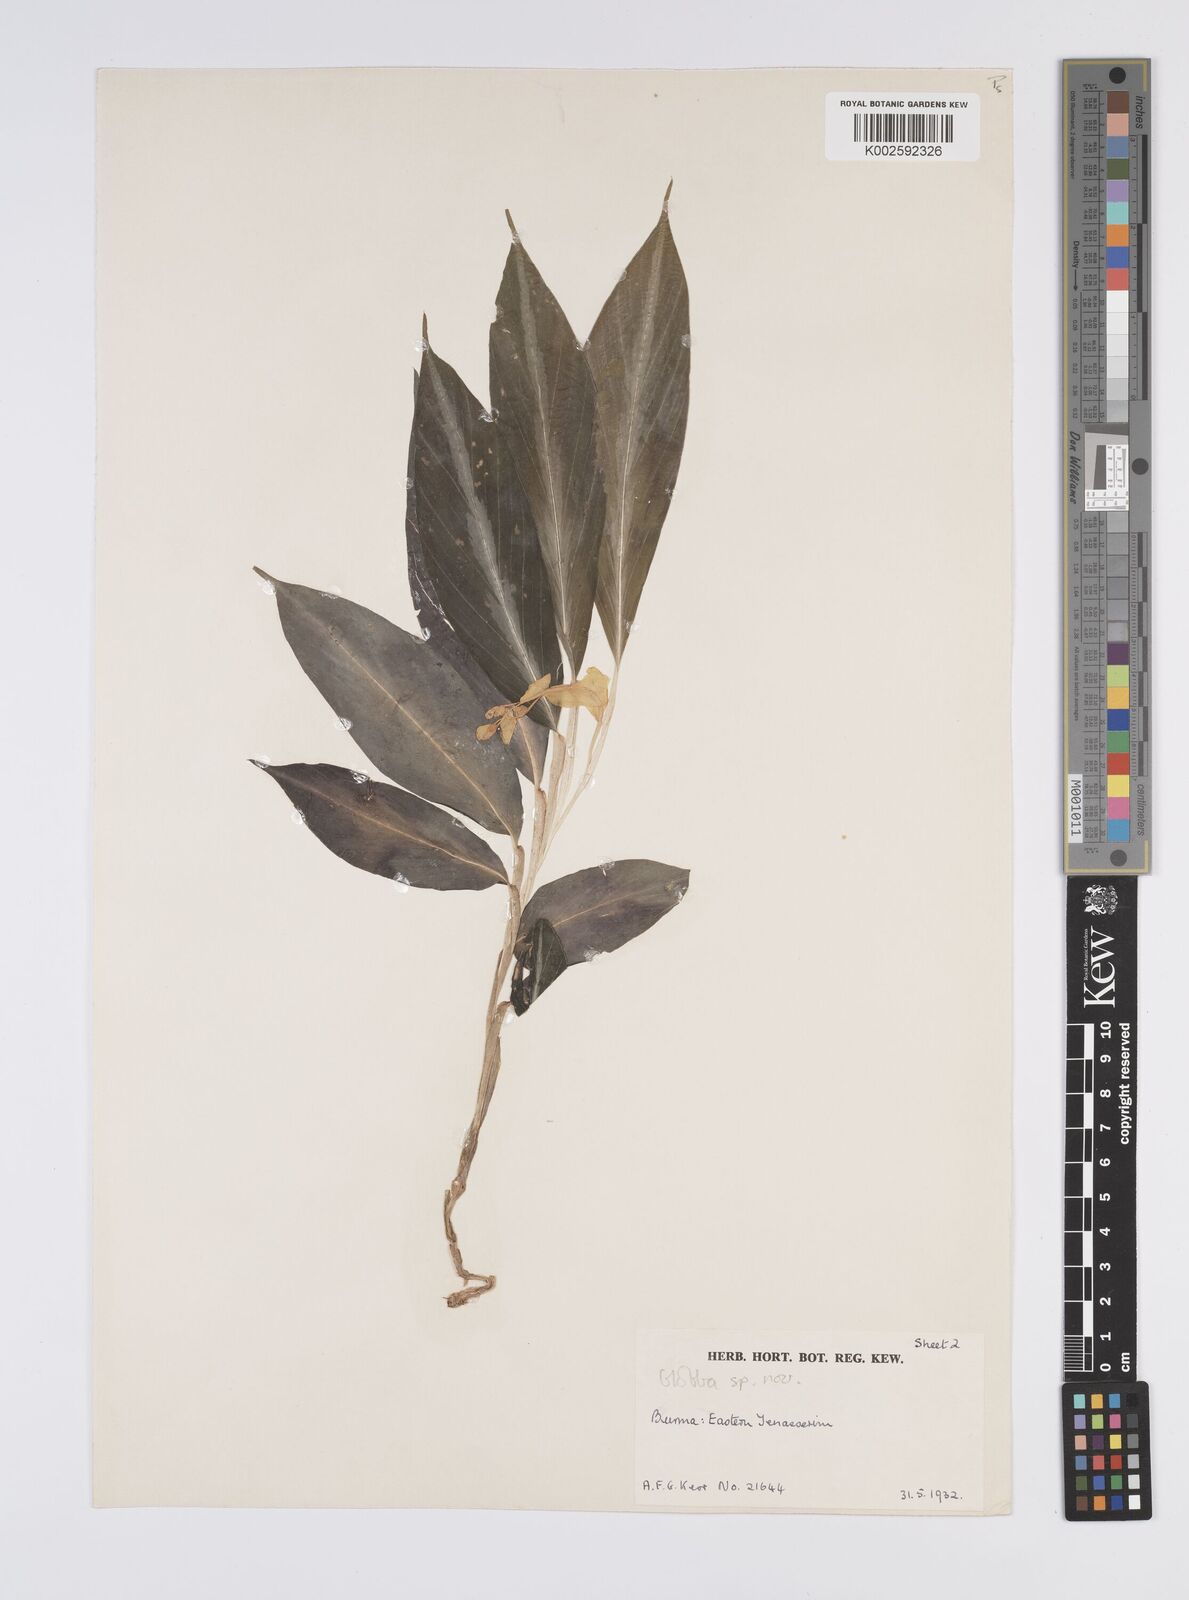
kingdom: Plantae
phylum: Tracheophyta
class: Liliopsida
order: Zingiberales
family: Zingiberaceae
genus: Globba
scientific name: Globba
